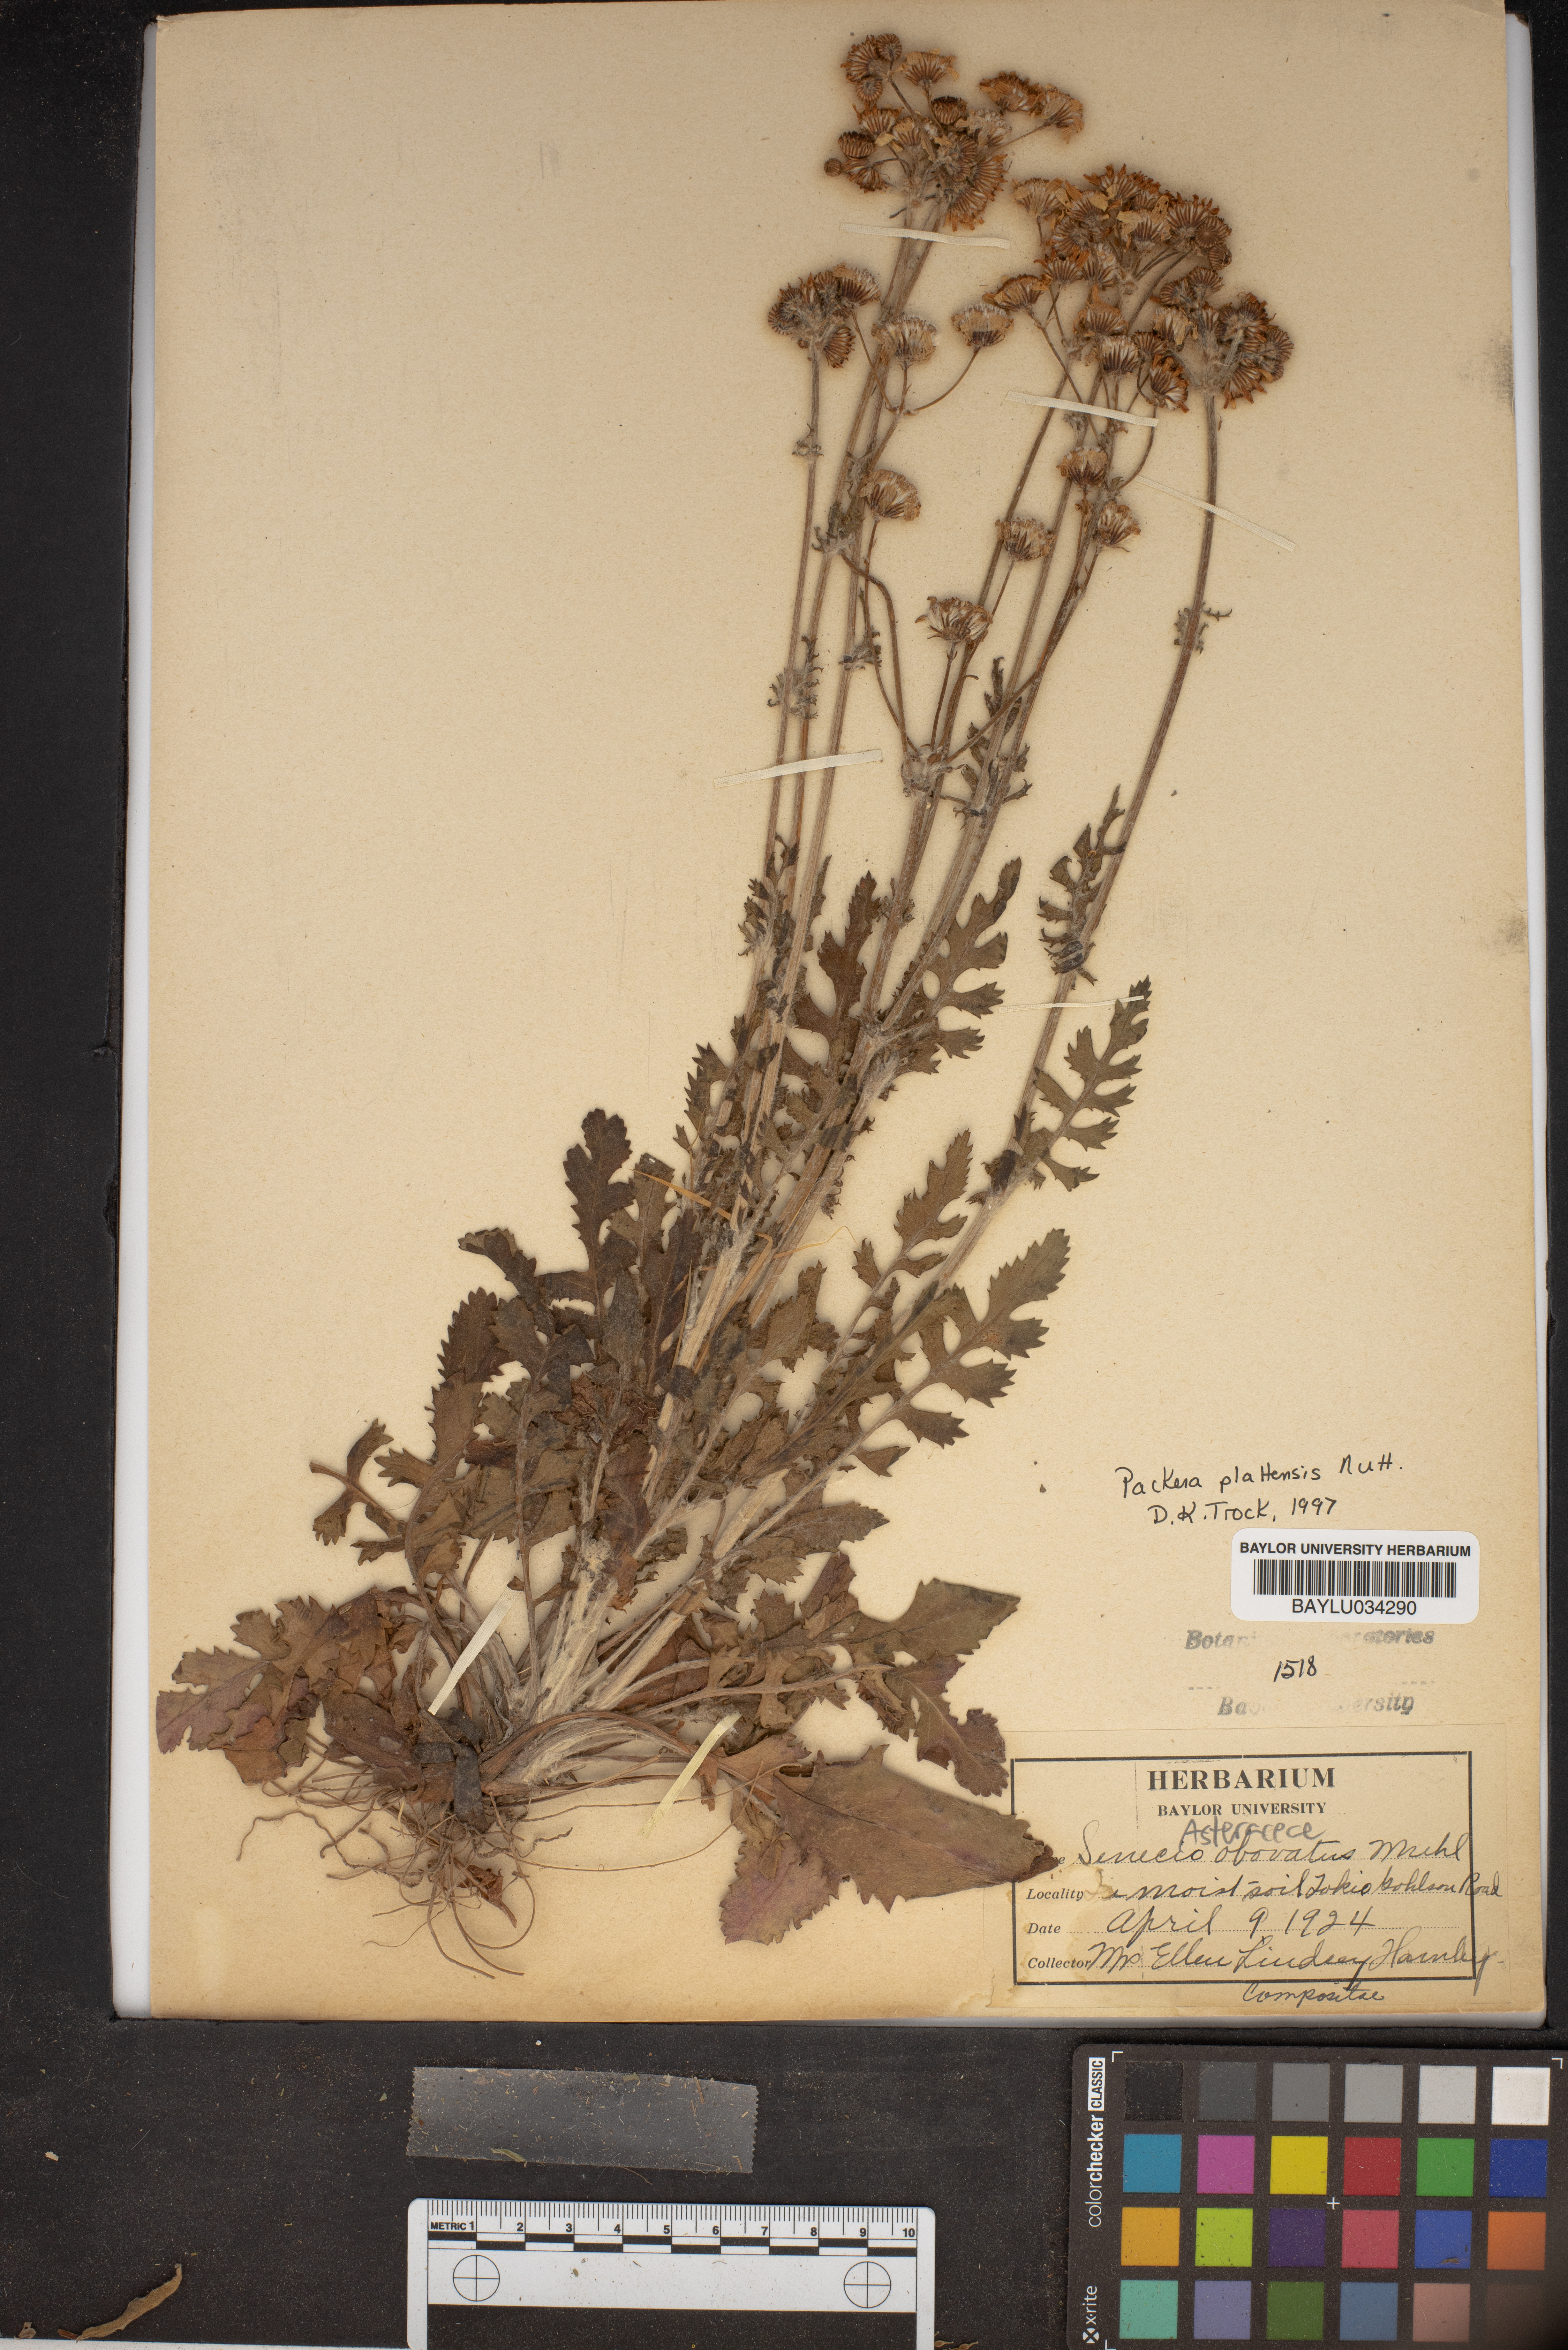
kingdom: Plantae
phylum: Tracheophyta
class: Magnoliopsida
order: Asterales
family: Asteraceae
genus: Packera
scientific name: Packera plattensis
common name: Prairie groundsel
